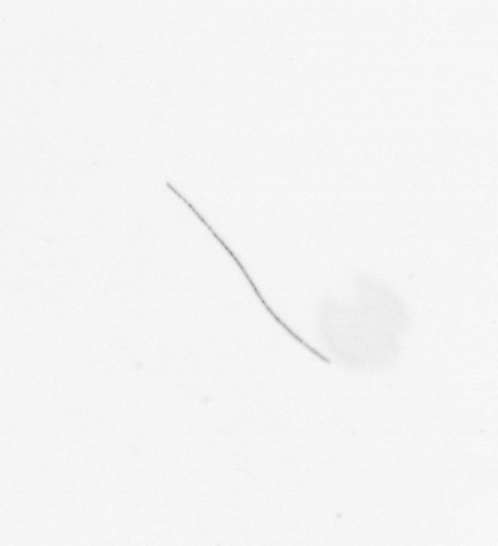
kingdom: Chromista
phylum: Ochrophyta
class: Bacillariophyceae
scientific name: Bacillariophyceae
